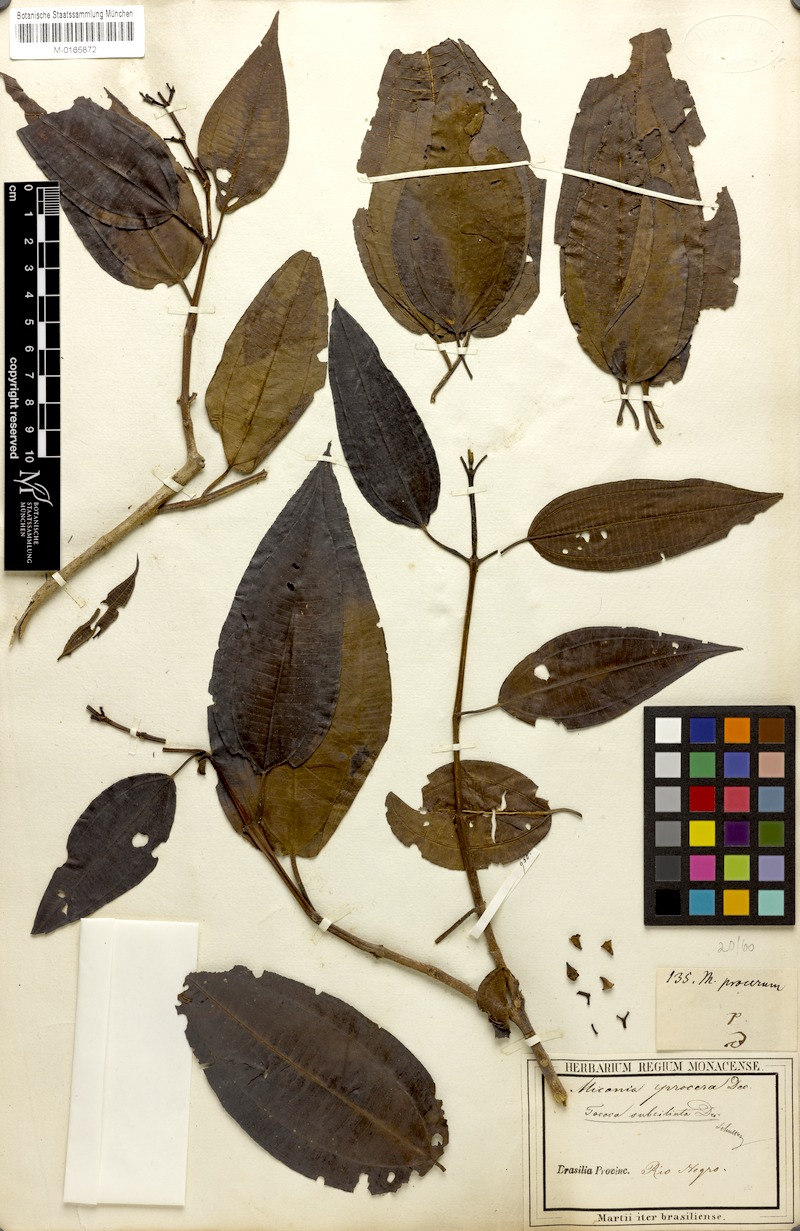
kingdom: Plantae
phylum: Tracheophyta
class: Magnoliopsida
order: Myrtales
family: Melastomataceae
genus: Miconia
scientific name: Miconia subciliata
